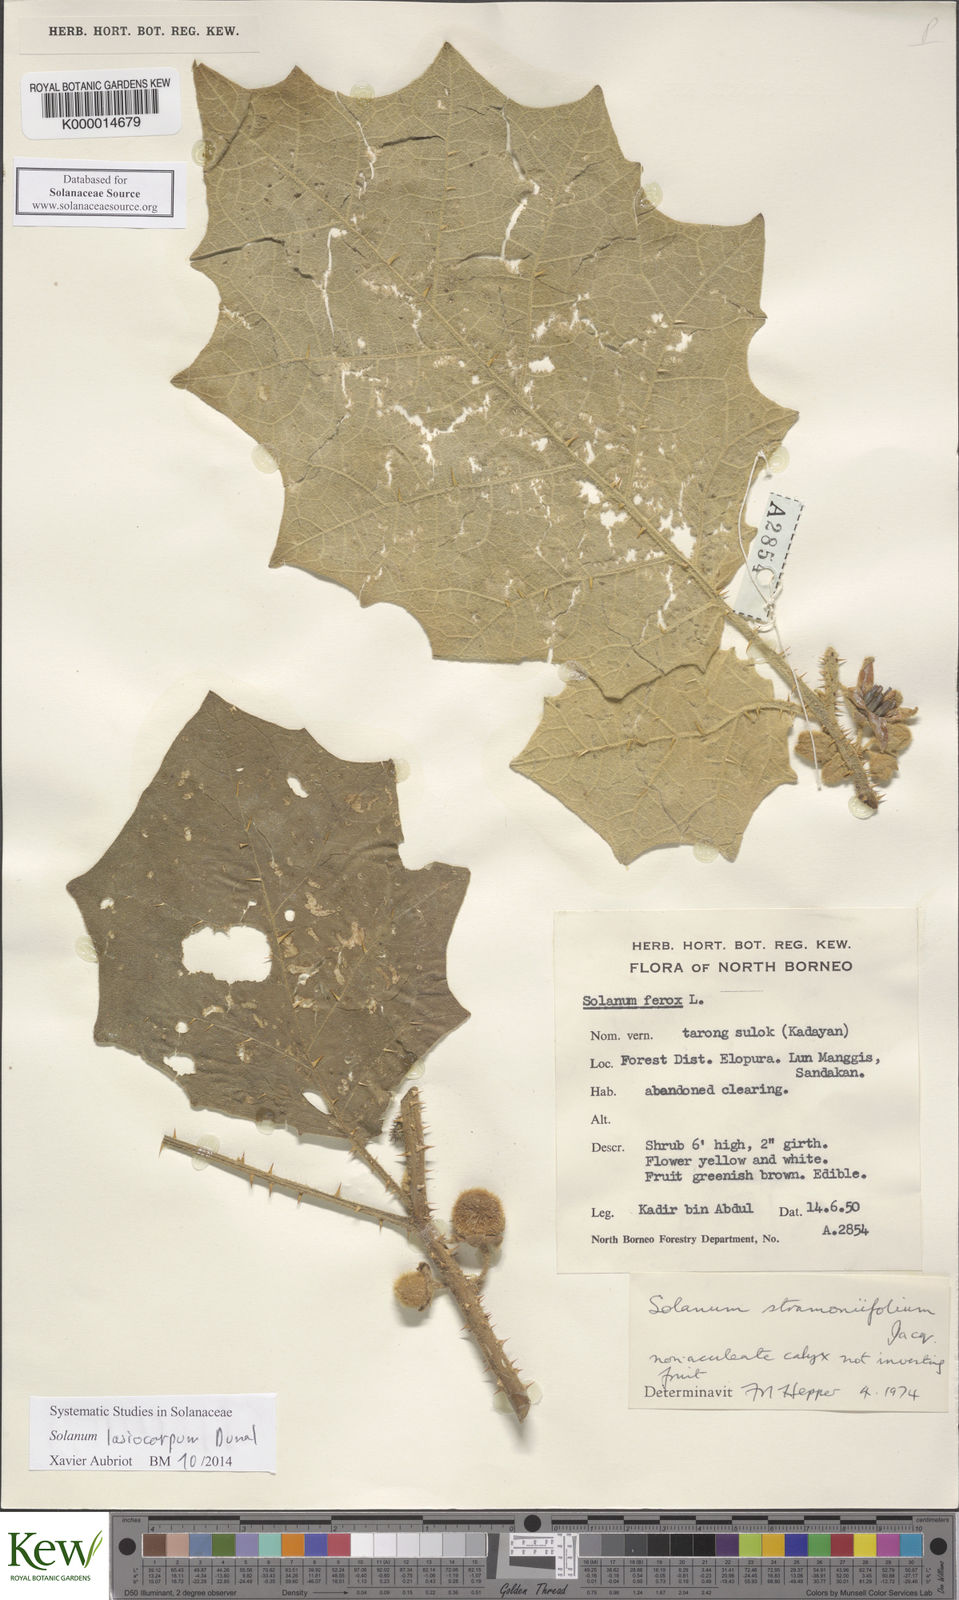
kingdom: Plantae
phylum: Tracheophyta
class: Magnoliopsida
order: Solanales
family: Solanaceae
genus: Solanum
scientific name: Solanum lasiocarpum
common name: Indian nightshade
